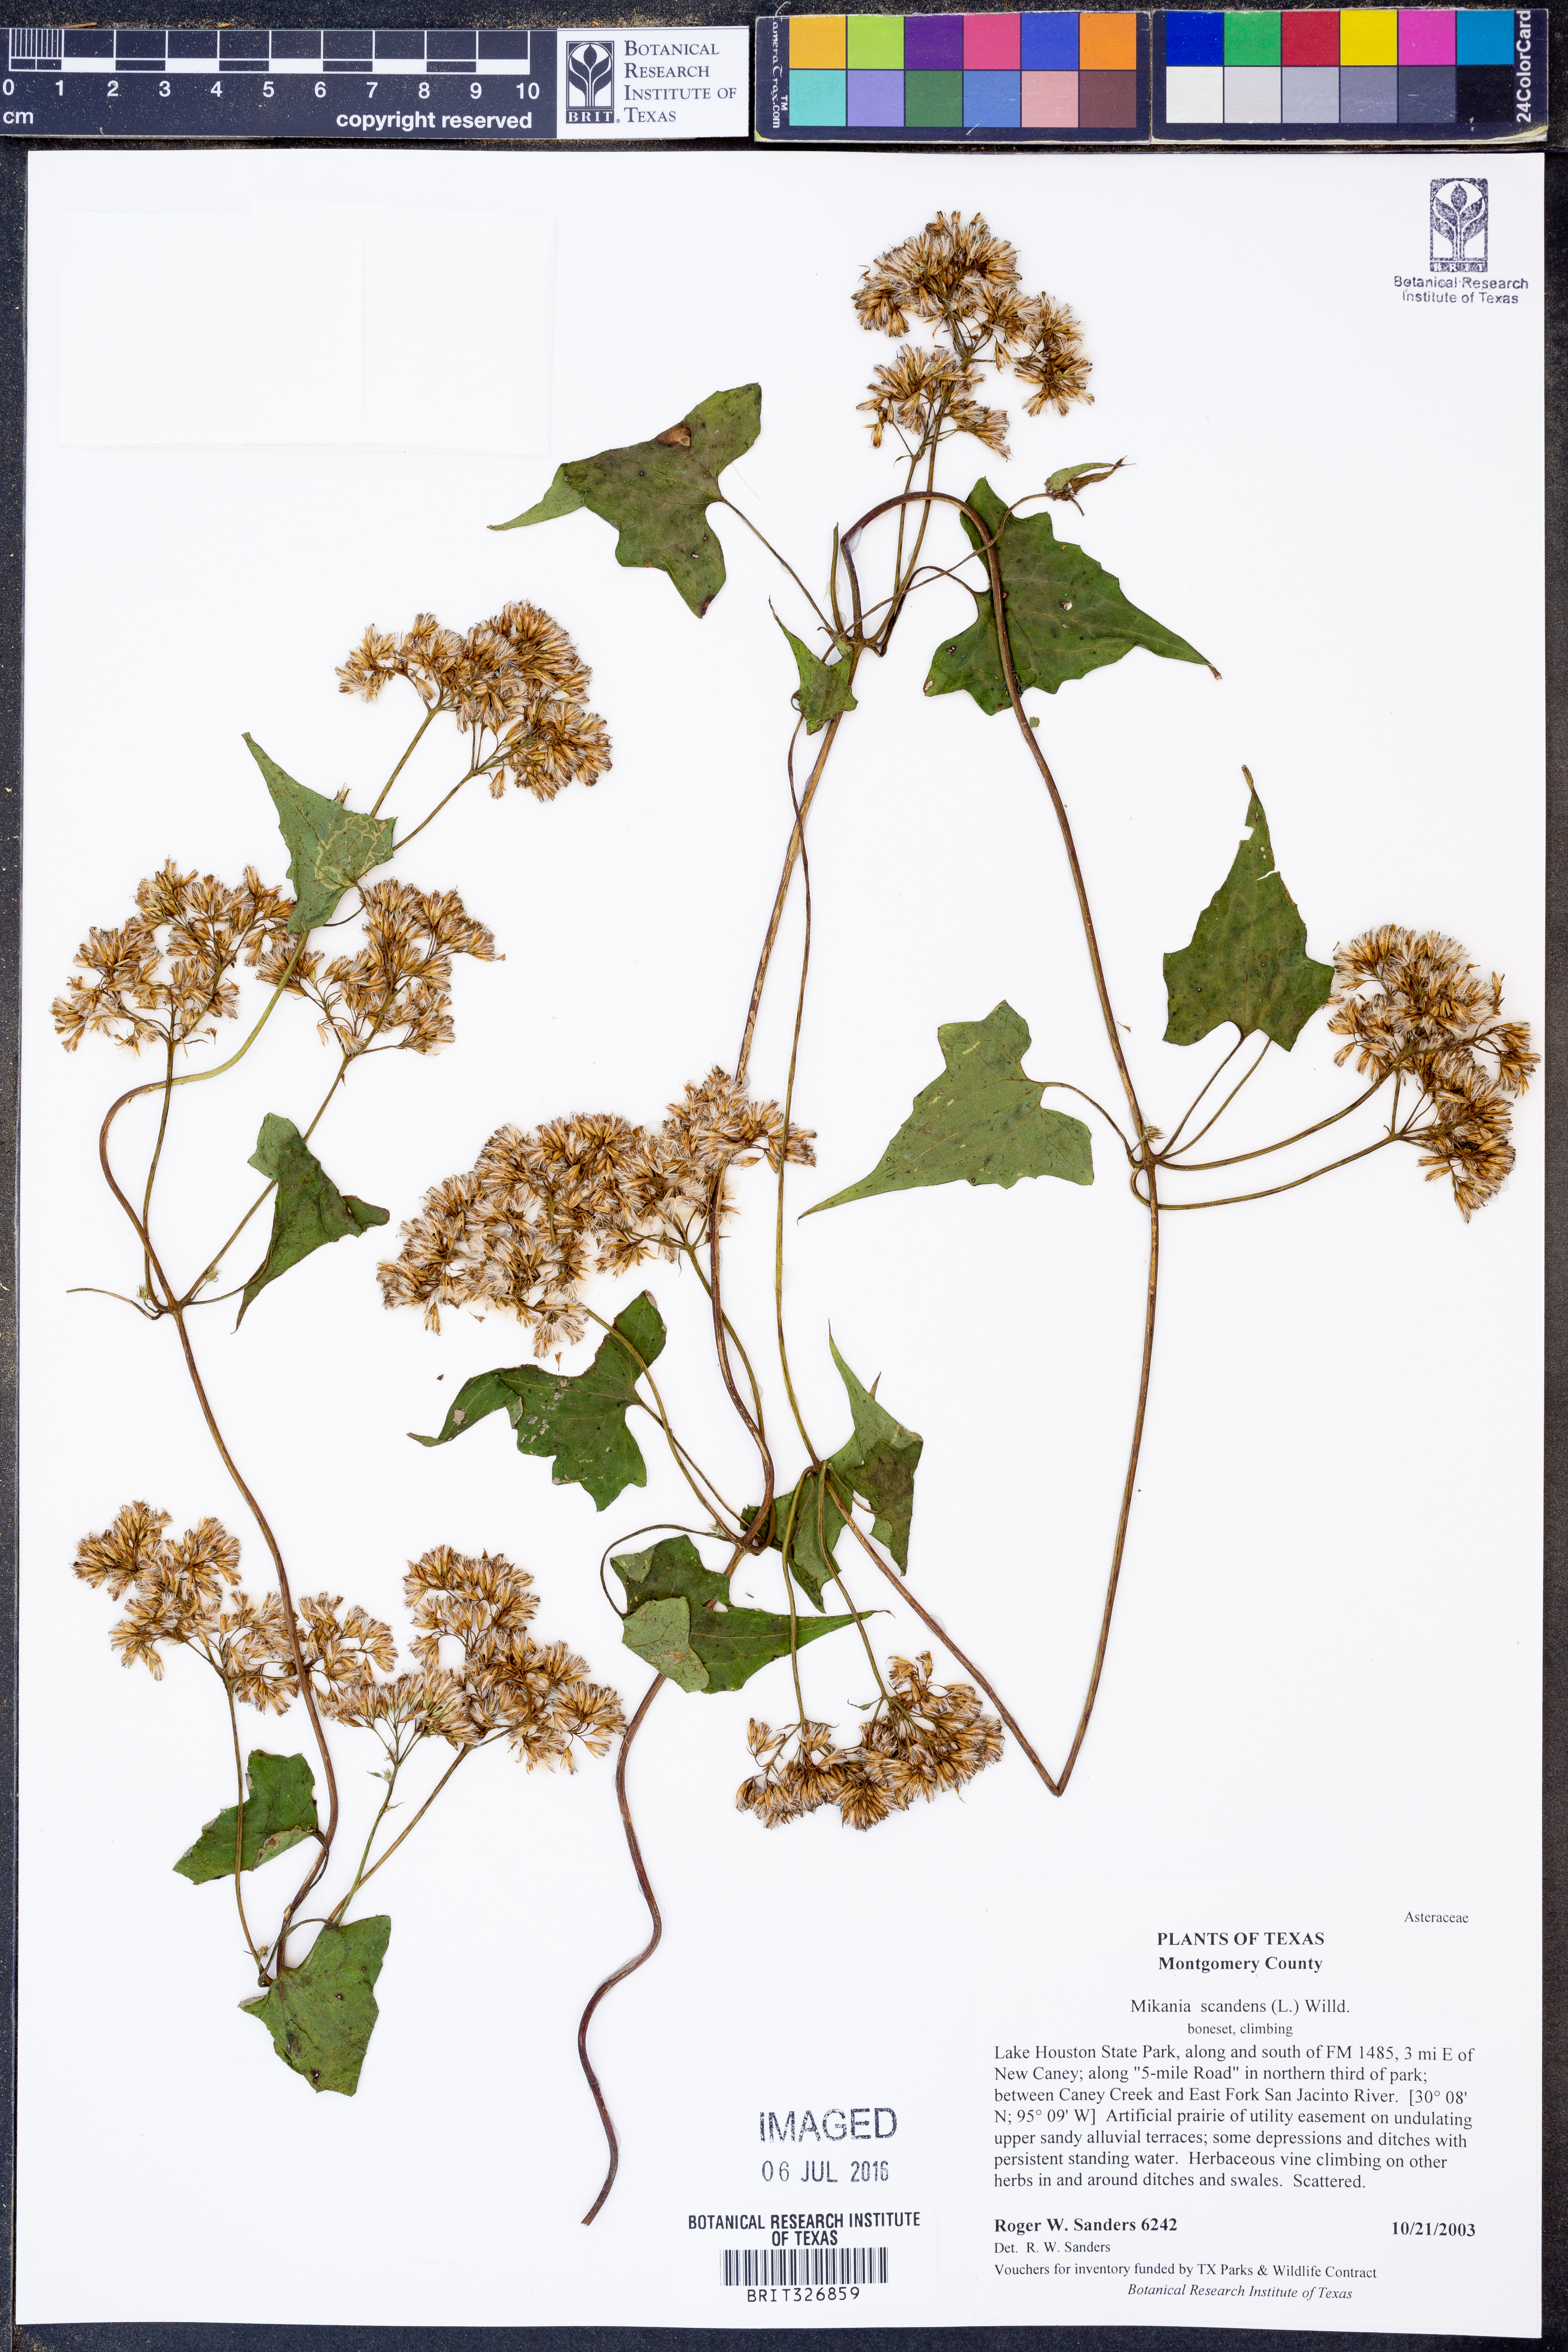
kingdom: Plantae
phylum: Tracheophyta
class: Magnoliopsida
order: Asterales
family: Asteraceae
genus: Mikania
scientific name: Mikania scandens
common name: Climbing hempvine
